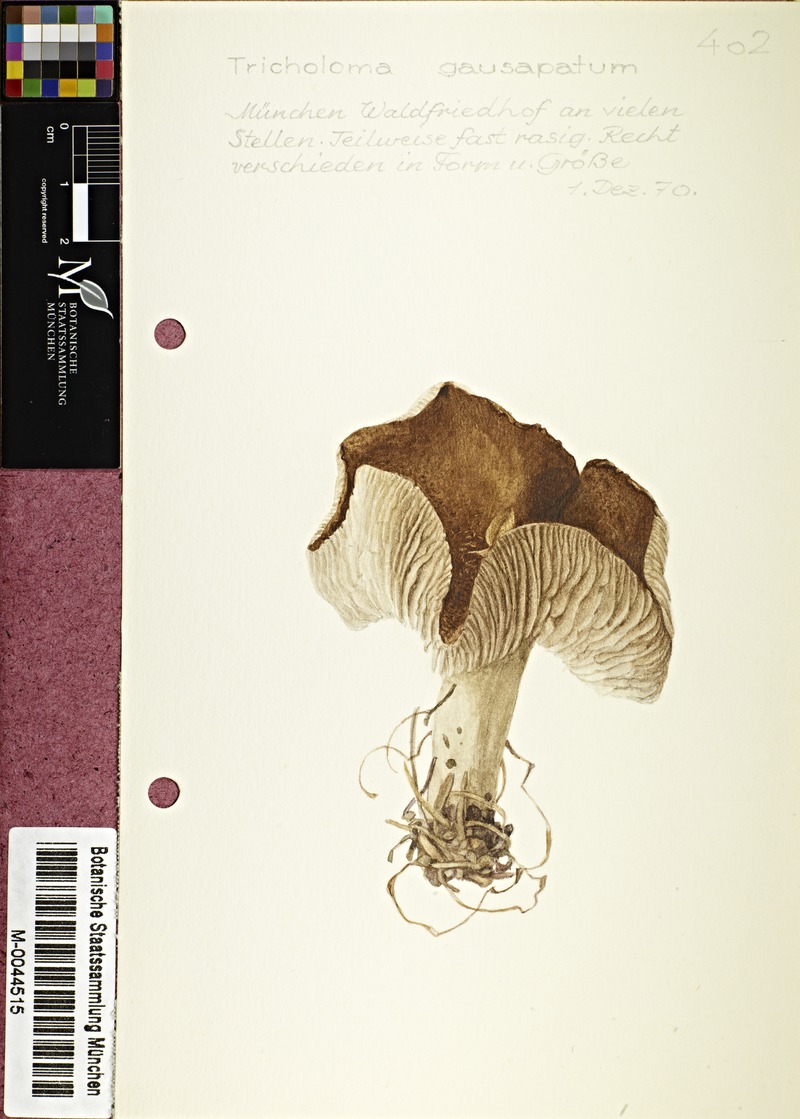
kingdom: Fungi
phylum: Basidiomycota
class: Agaricomycetes
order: Agaricales
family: Tricholomataceae
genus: Tricholoma
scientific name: Tricholoma gausapatum
